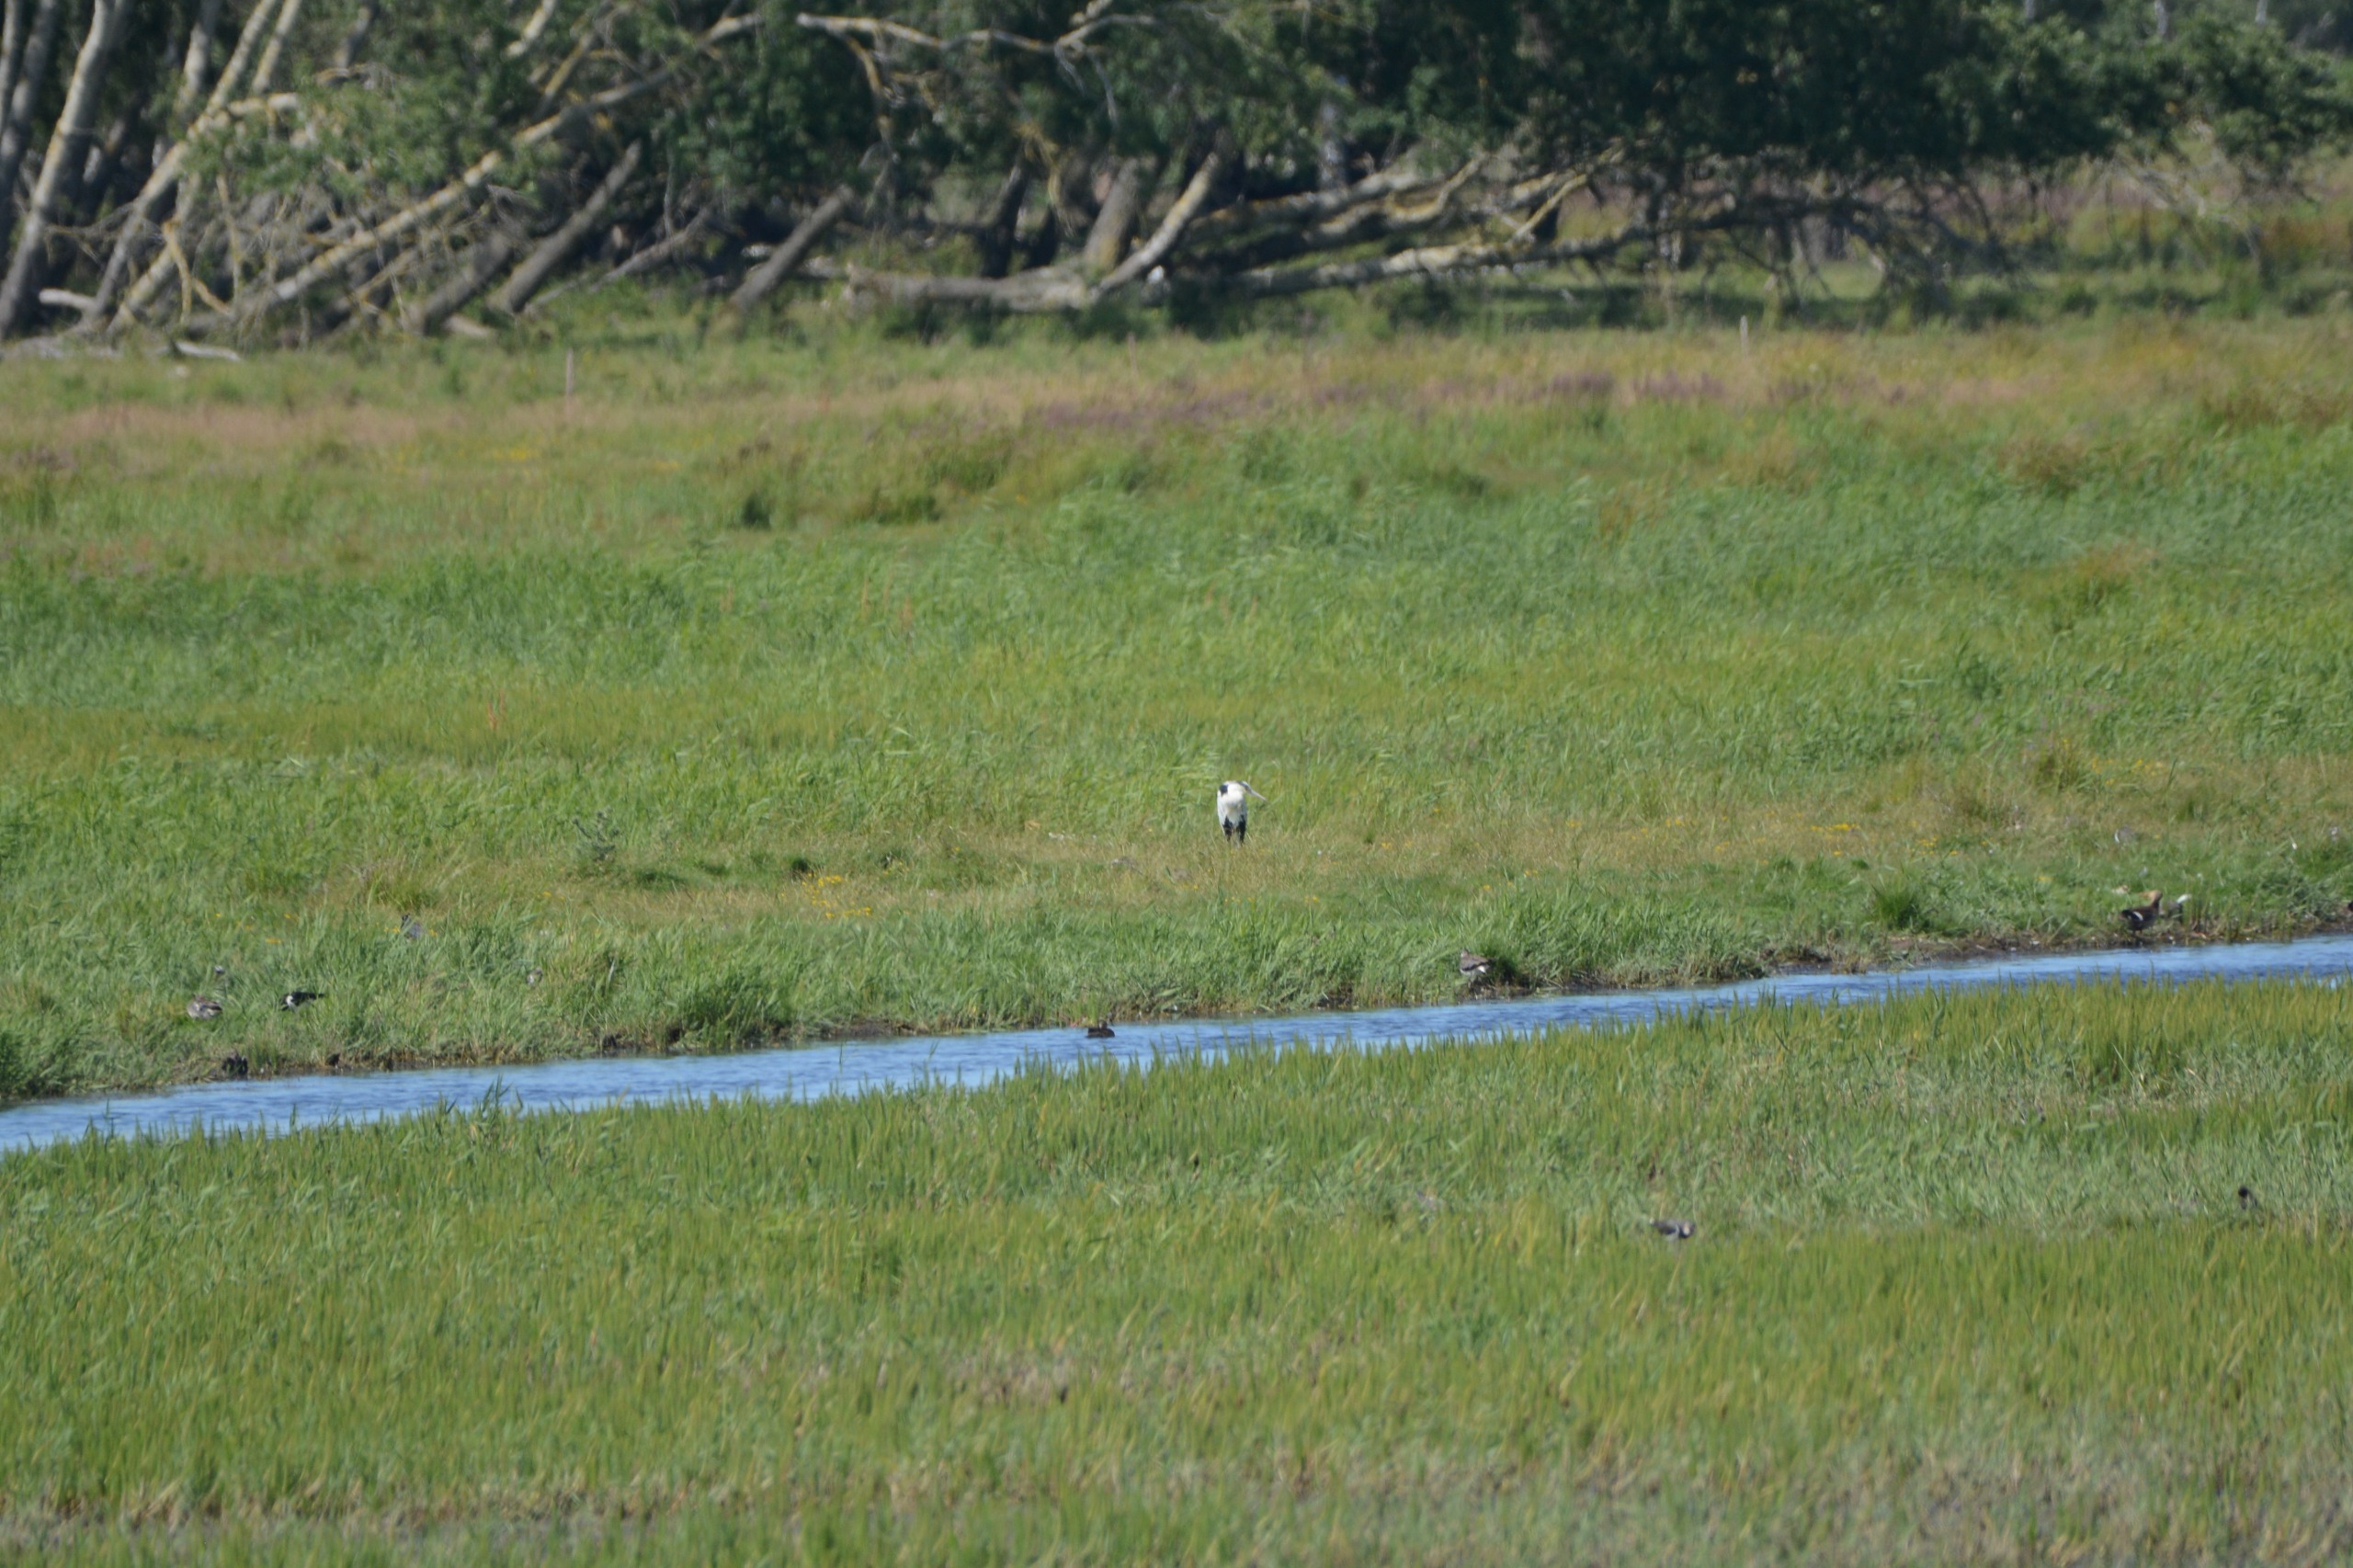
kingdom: Animalia
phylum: Chordata
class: Aves
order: Pelecaniformes
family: Ardeidae
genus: Ardea
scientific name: Ardea cinerea
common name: Fiskehejre
